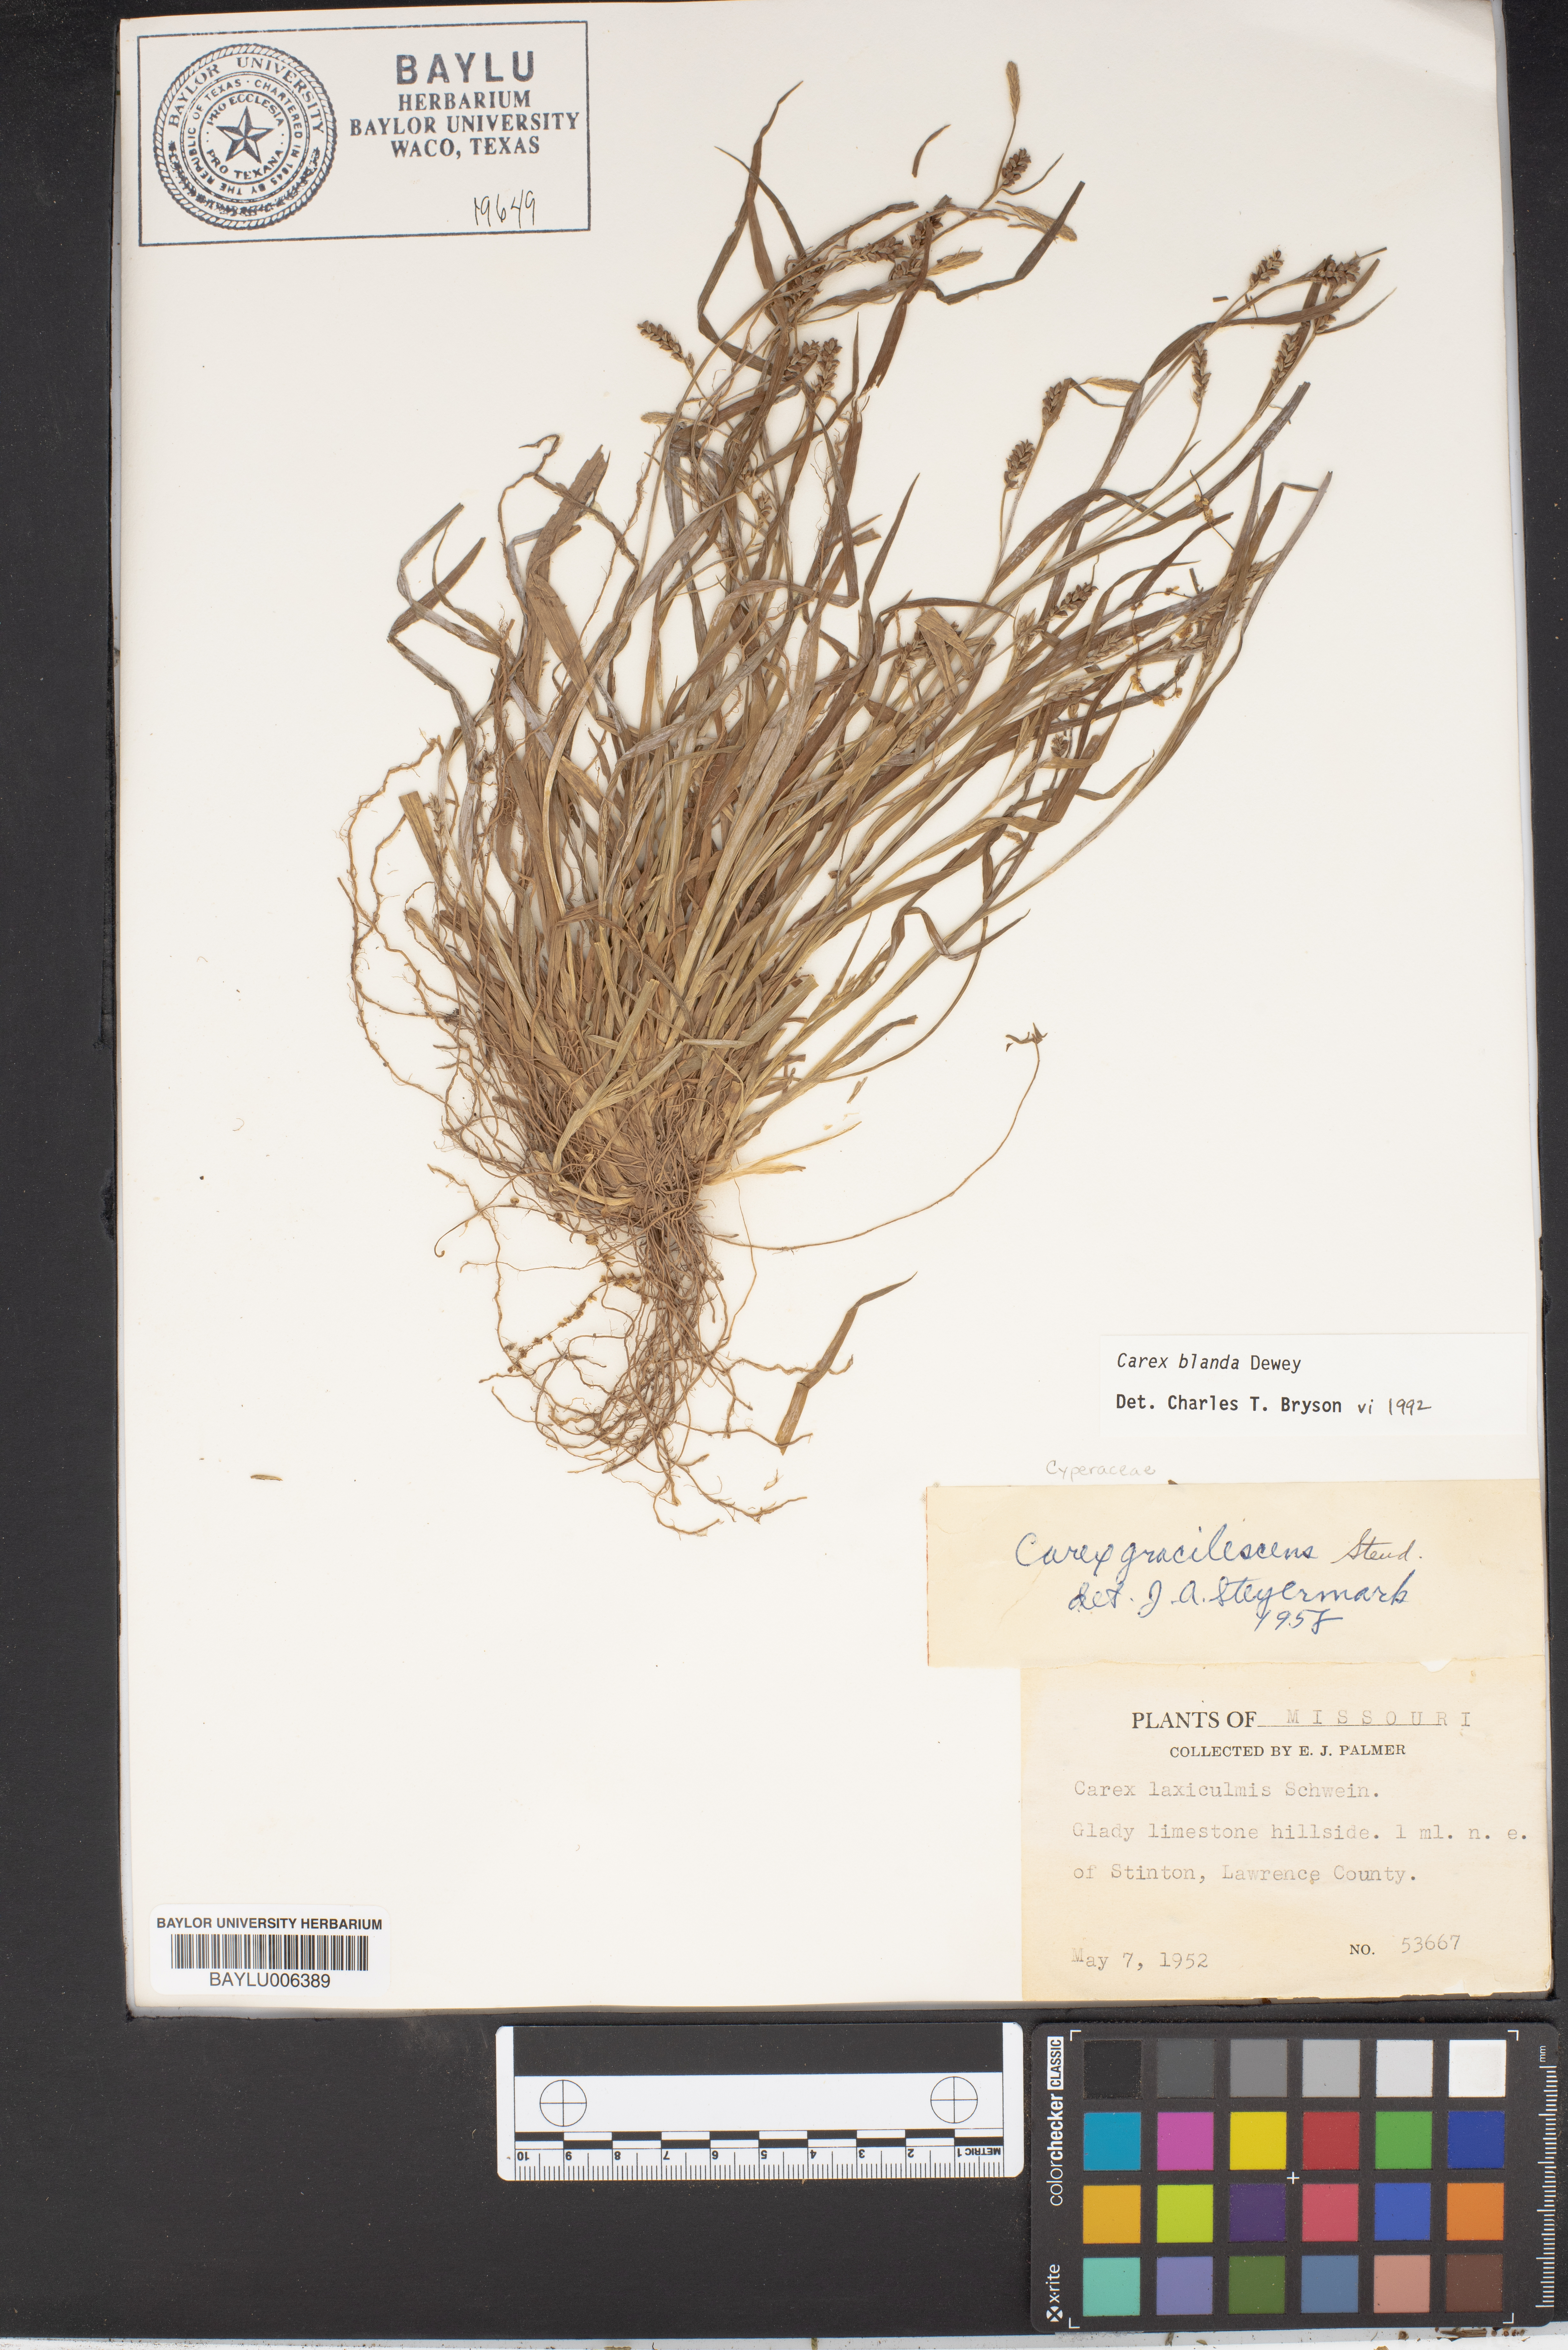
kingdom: Plantae
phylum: Tracheophyta
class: Liliopsida
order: Poales
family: Cyperaceae
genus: Carex
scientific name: Carex laxiculmis
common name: Spreading sedge
